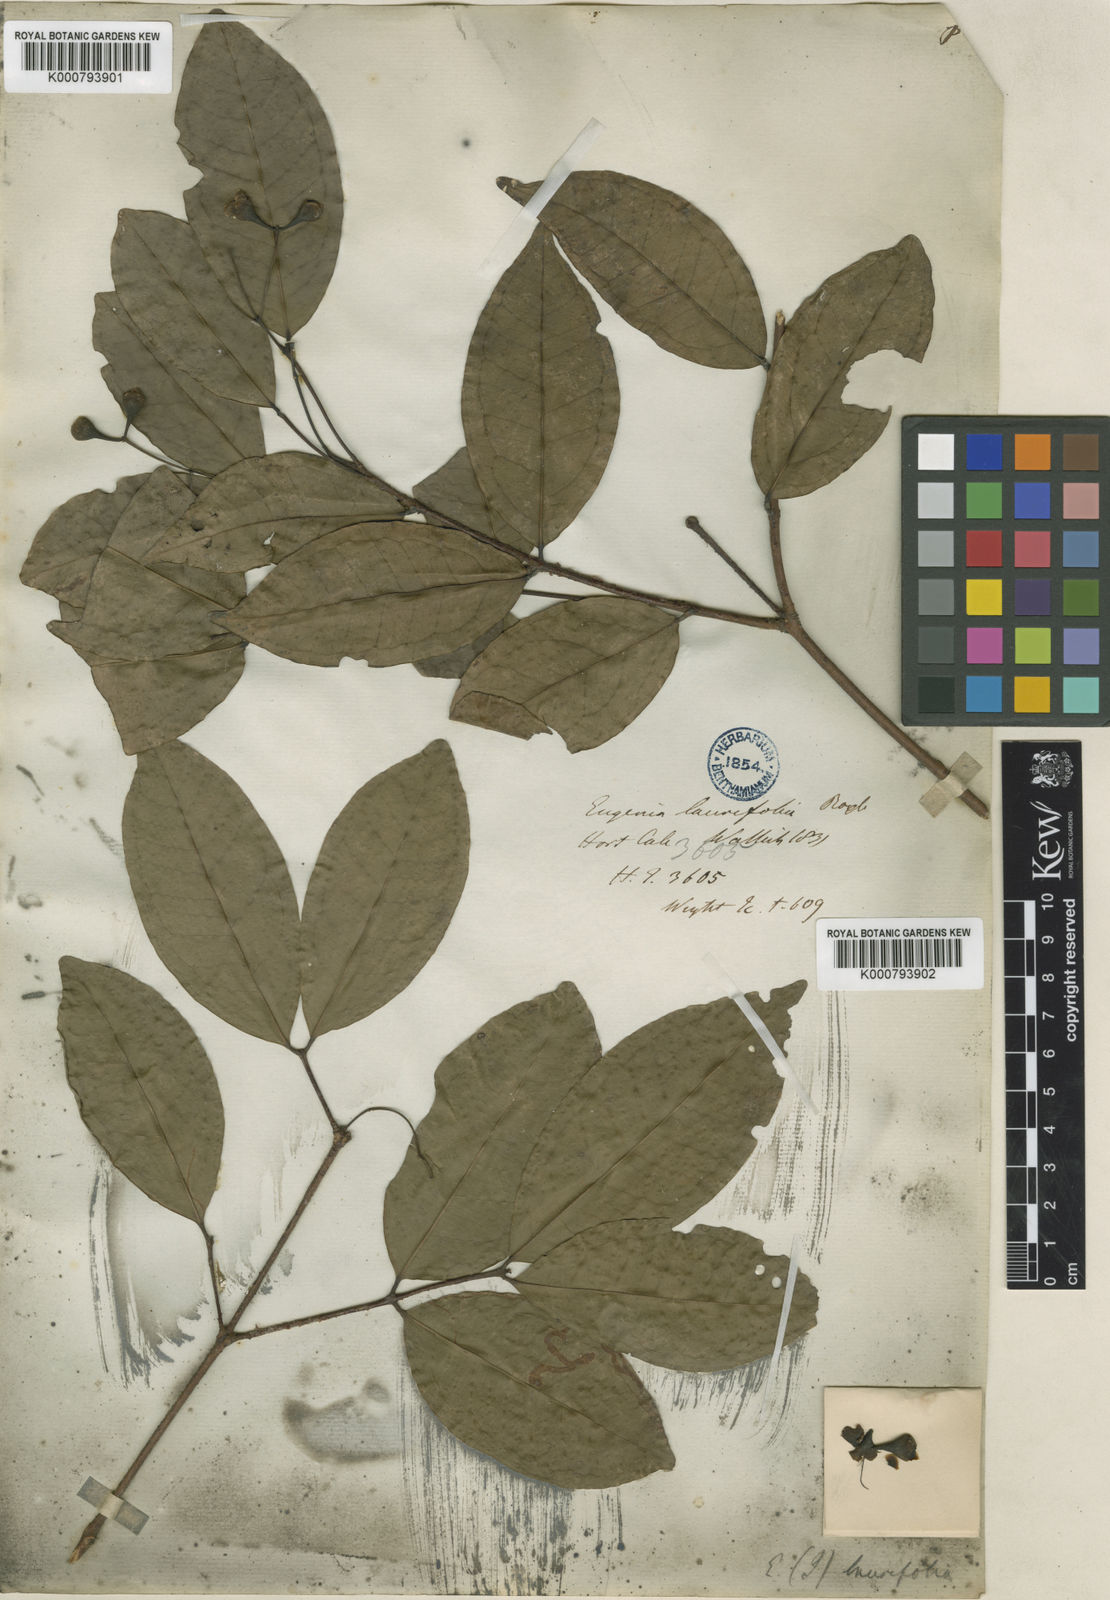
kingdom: Plantae
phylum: Tracheophyta
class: Magnoliopsida
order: Myrtales
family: Myrtaceae
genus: Syzygium
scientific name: Syzygium laurifolium
